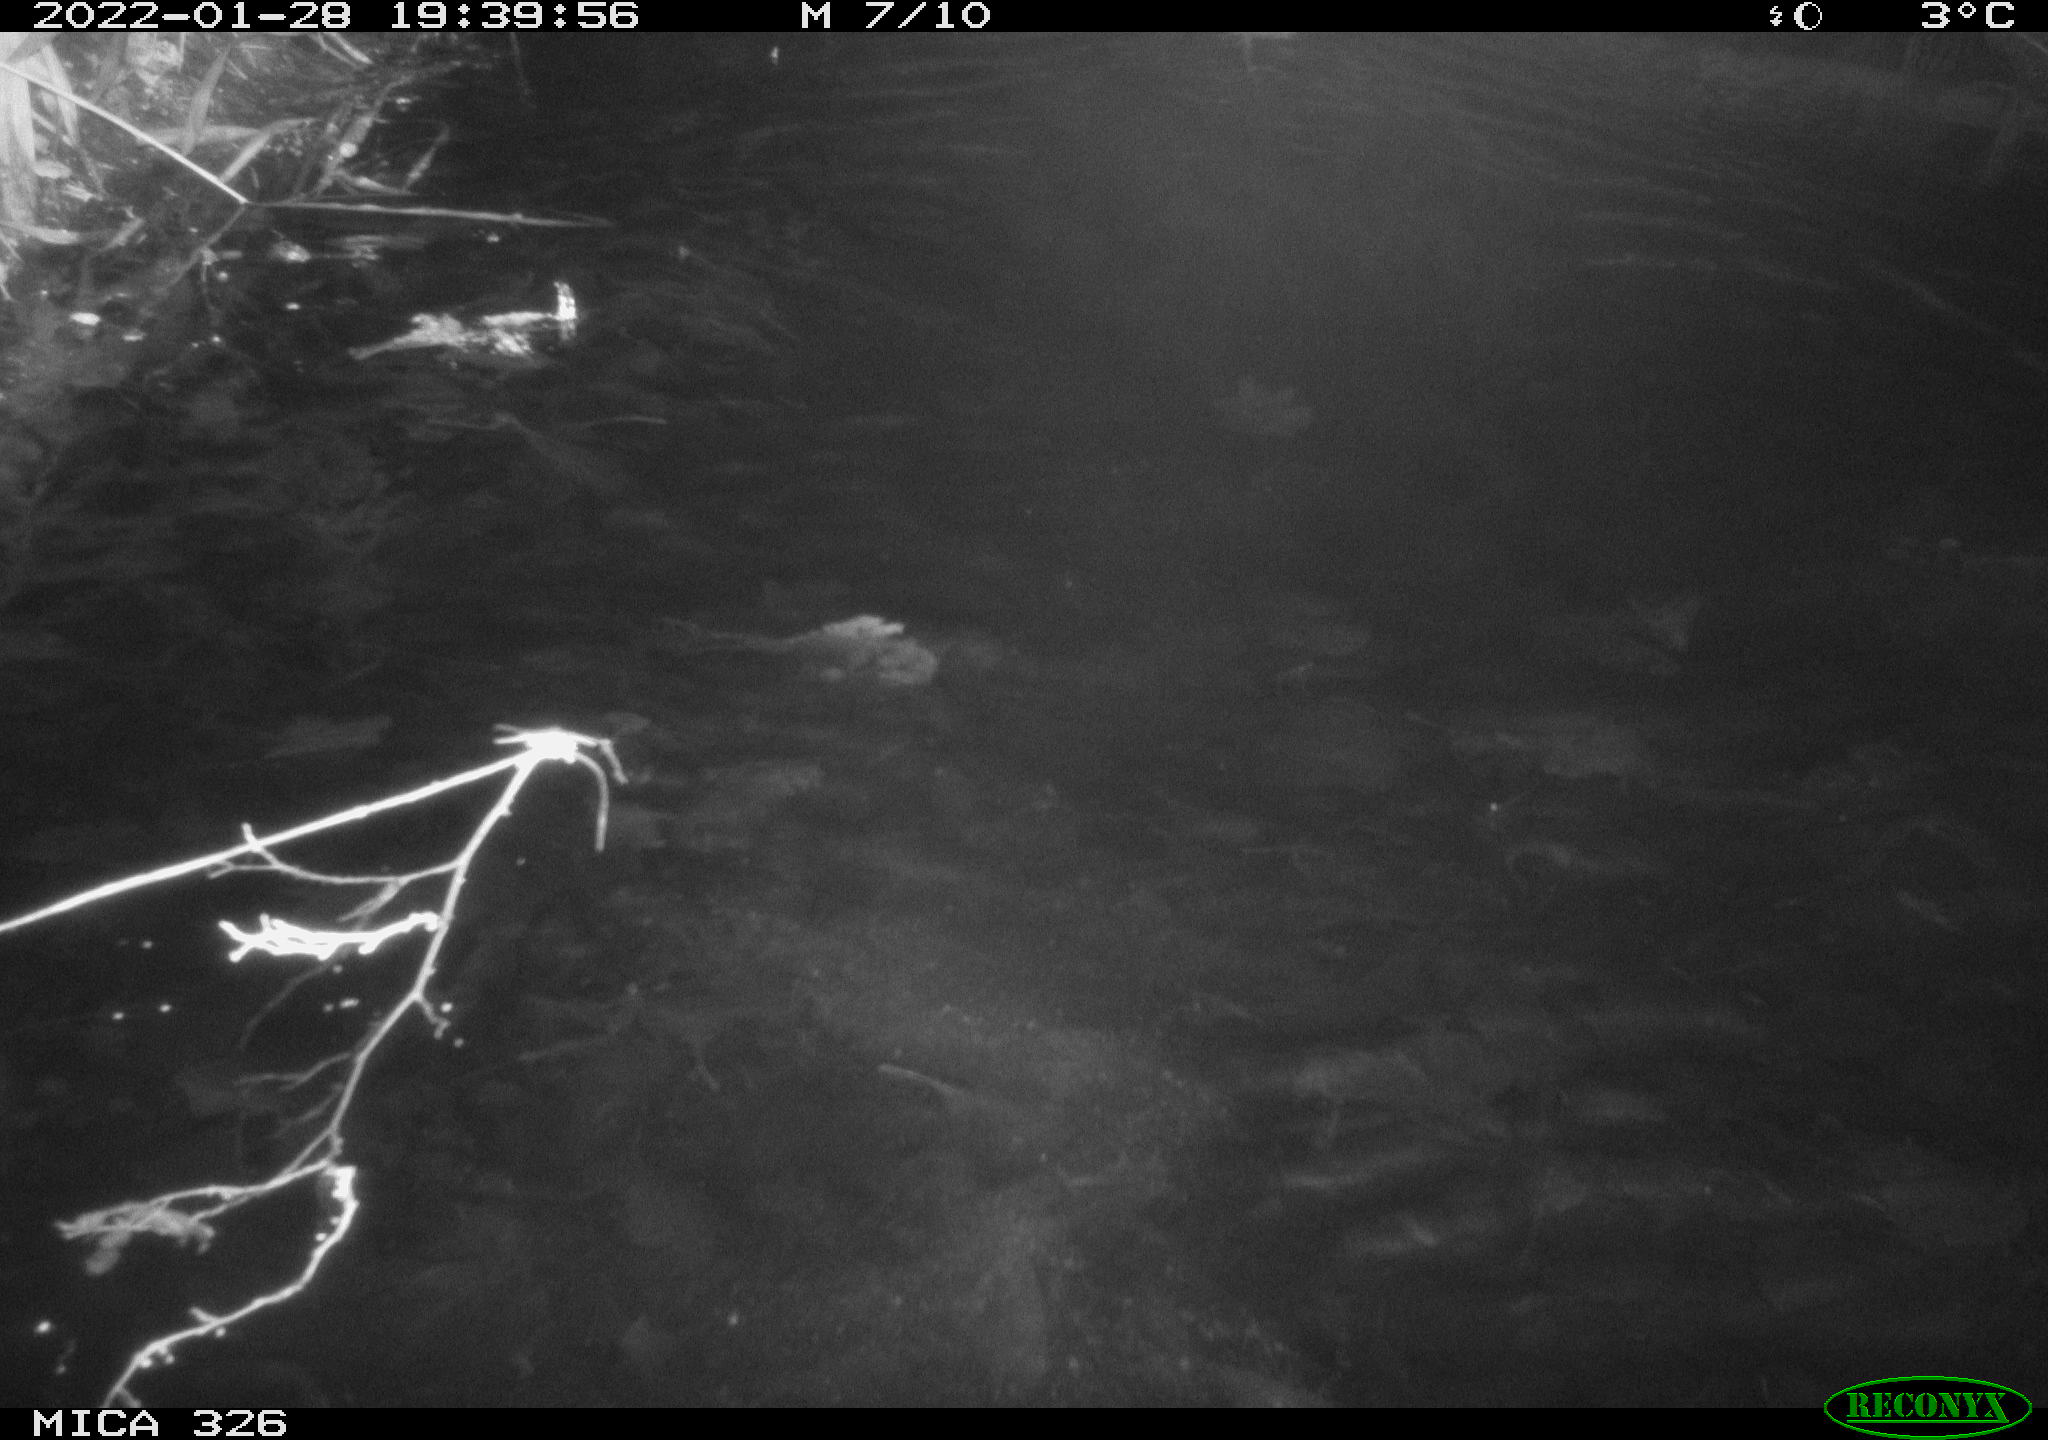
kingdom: Animalia
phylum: Chordata
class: Mammalia
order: Rodentia
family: Cricetidae
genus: Ondatra
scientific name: Ondatra zibethicus
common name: Muskrat
